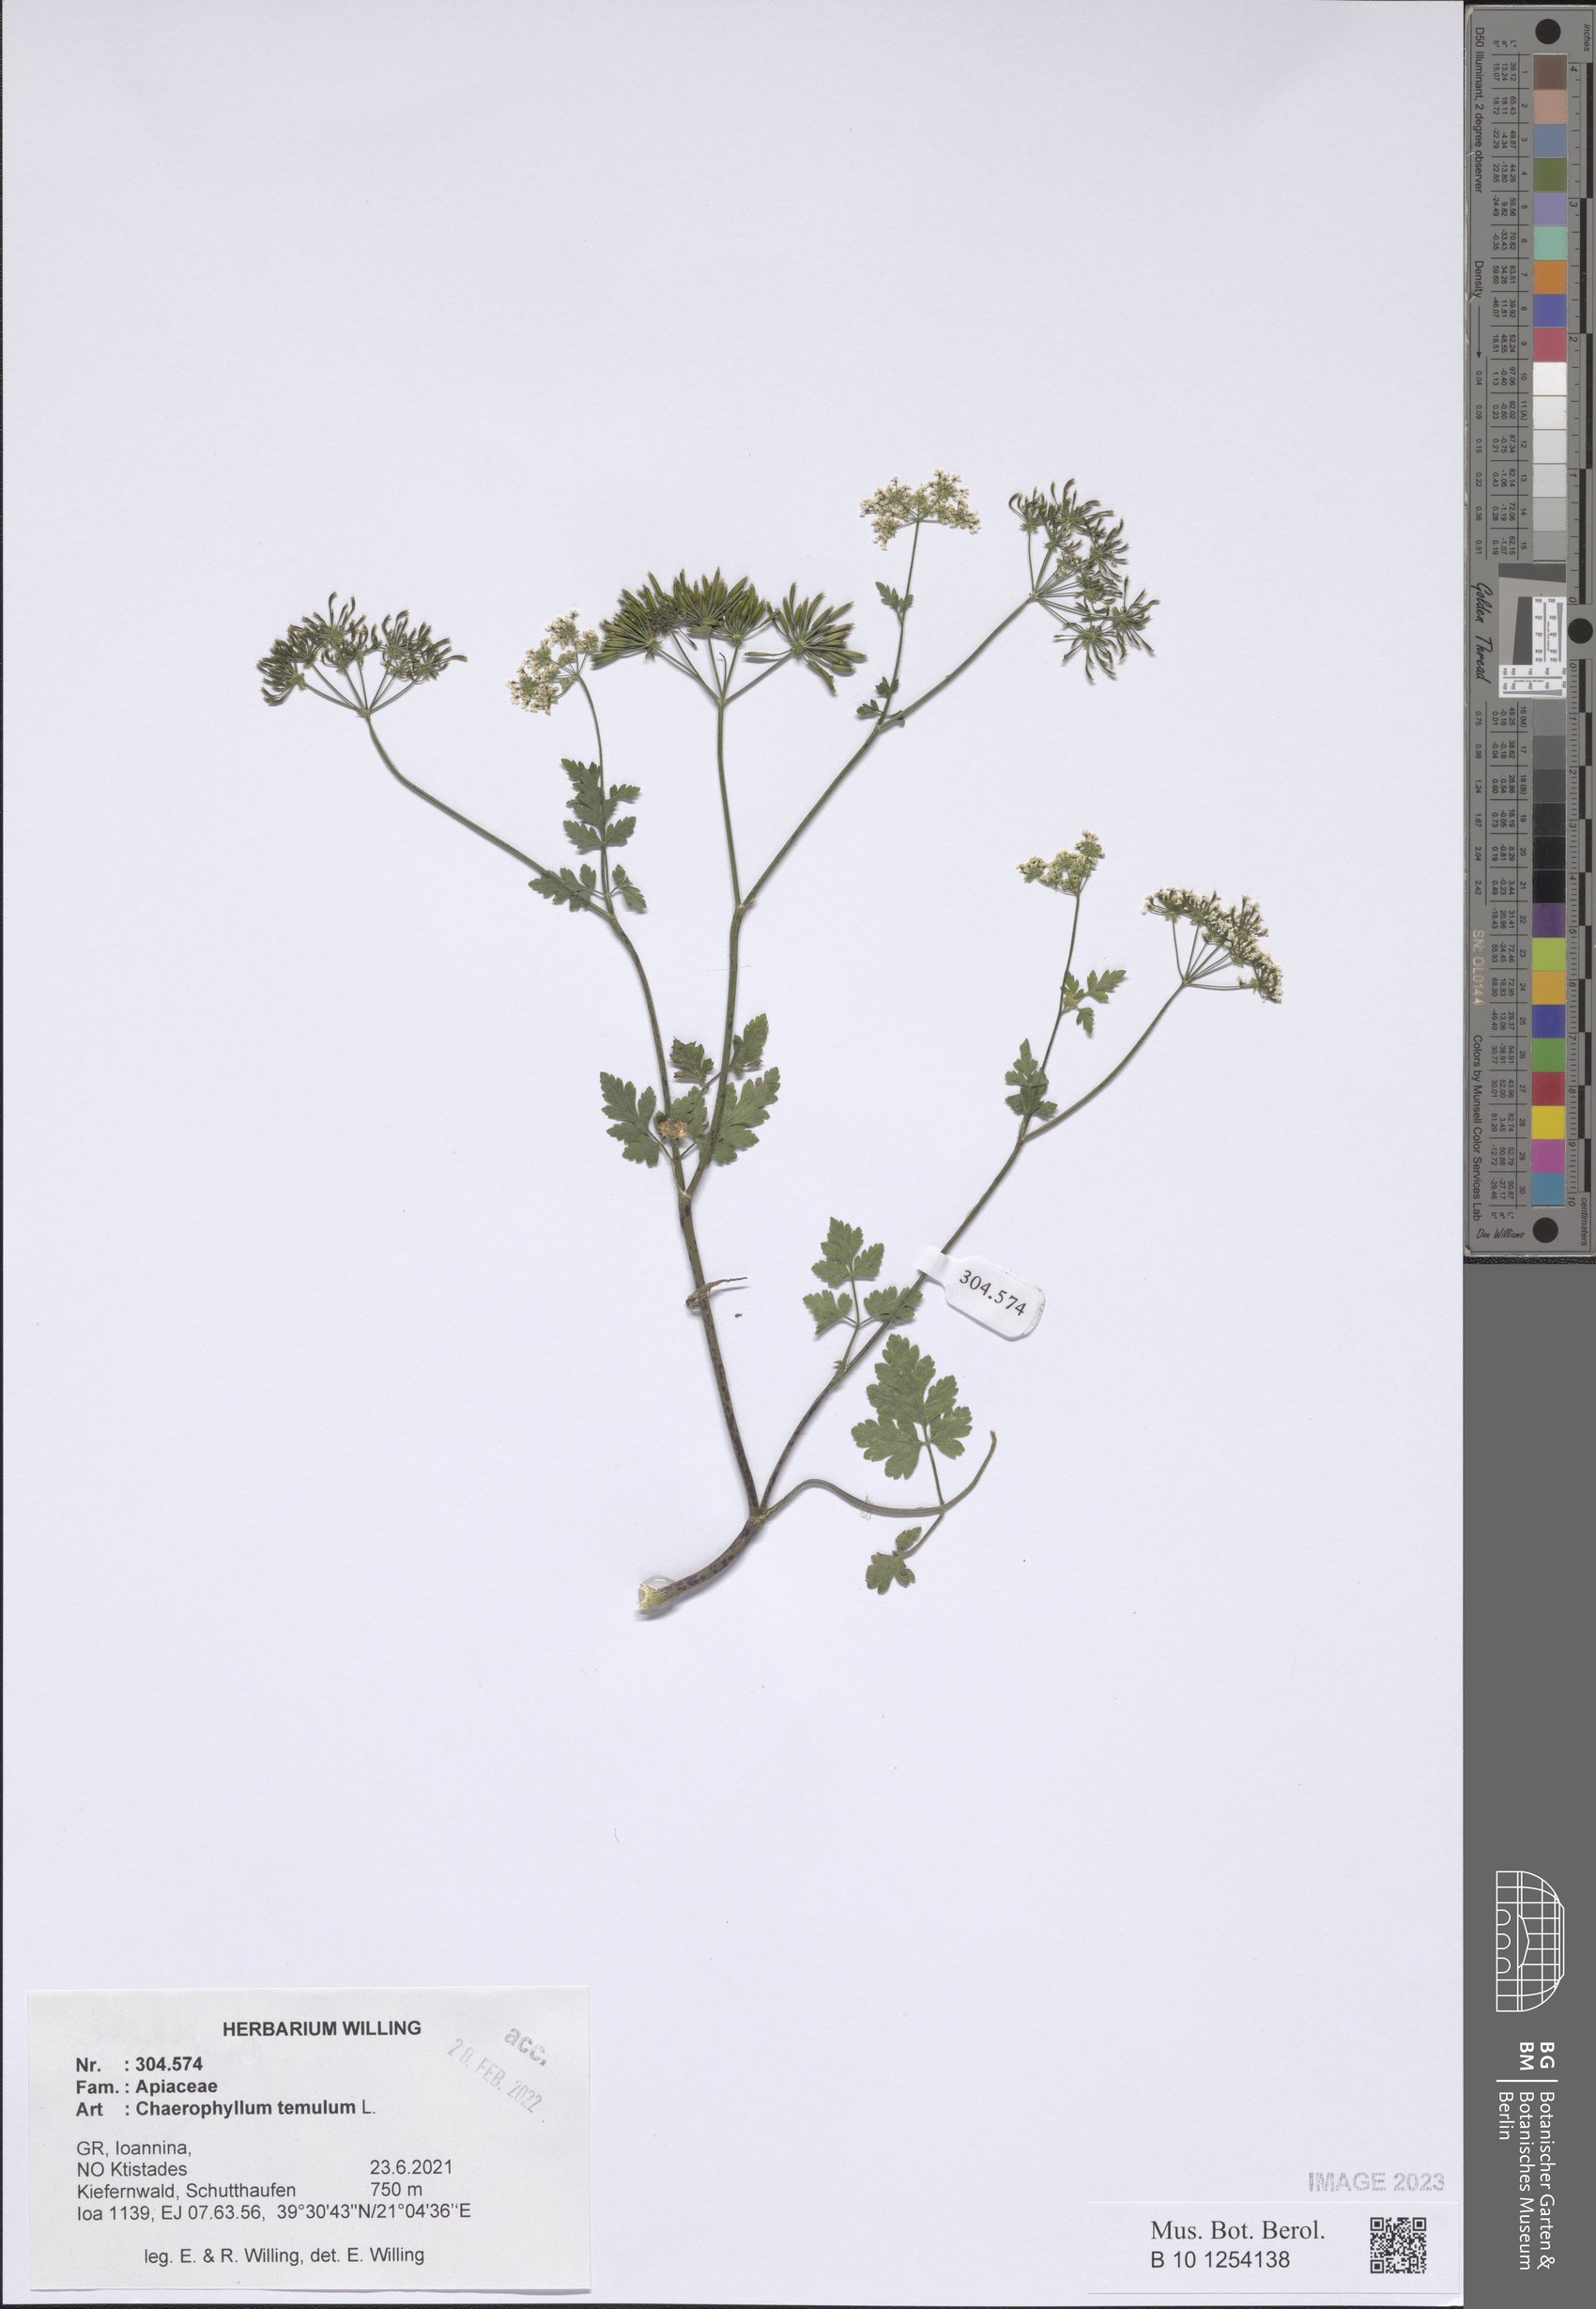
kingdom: Plantae
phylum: Tracheophyta
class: Magnoliopsida
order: Apiales
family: Apiaceae
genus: Chaerophyllum
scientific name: Chaerophyllum temulum
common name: Rough chervil
